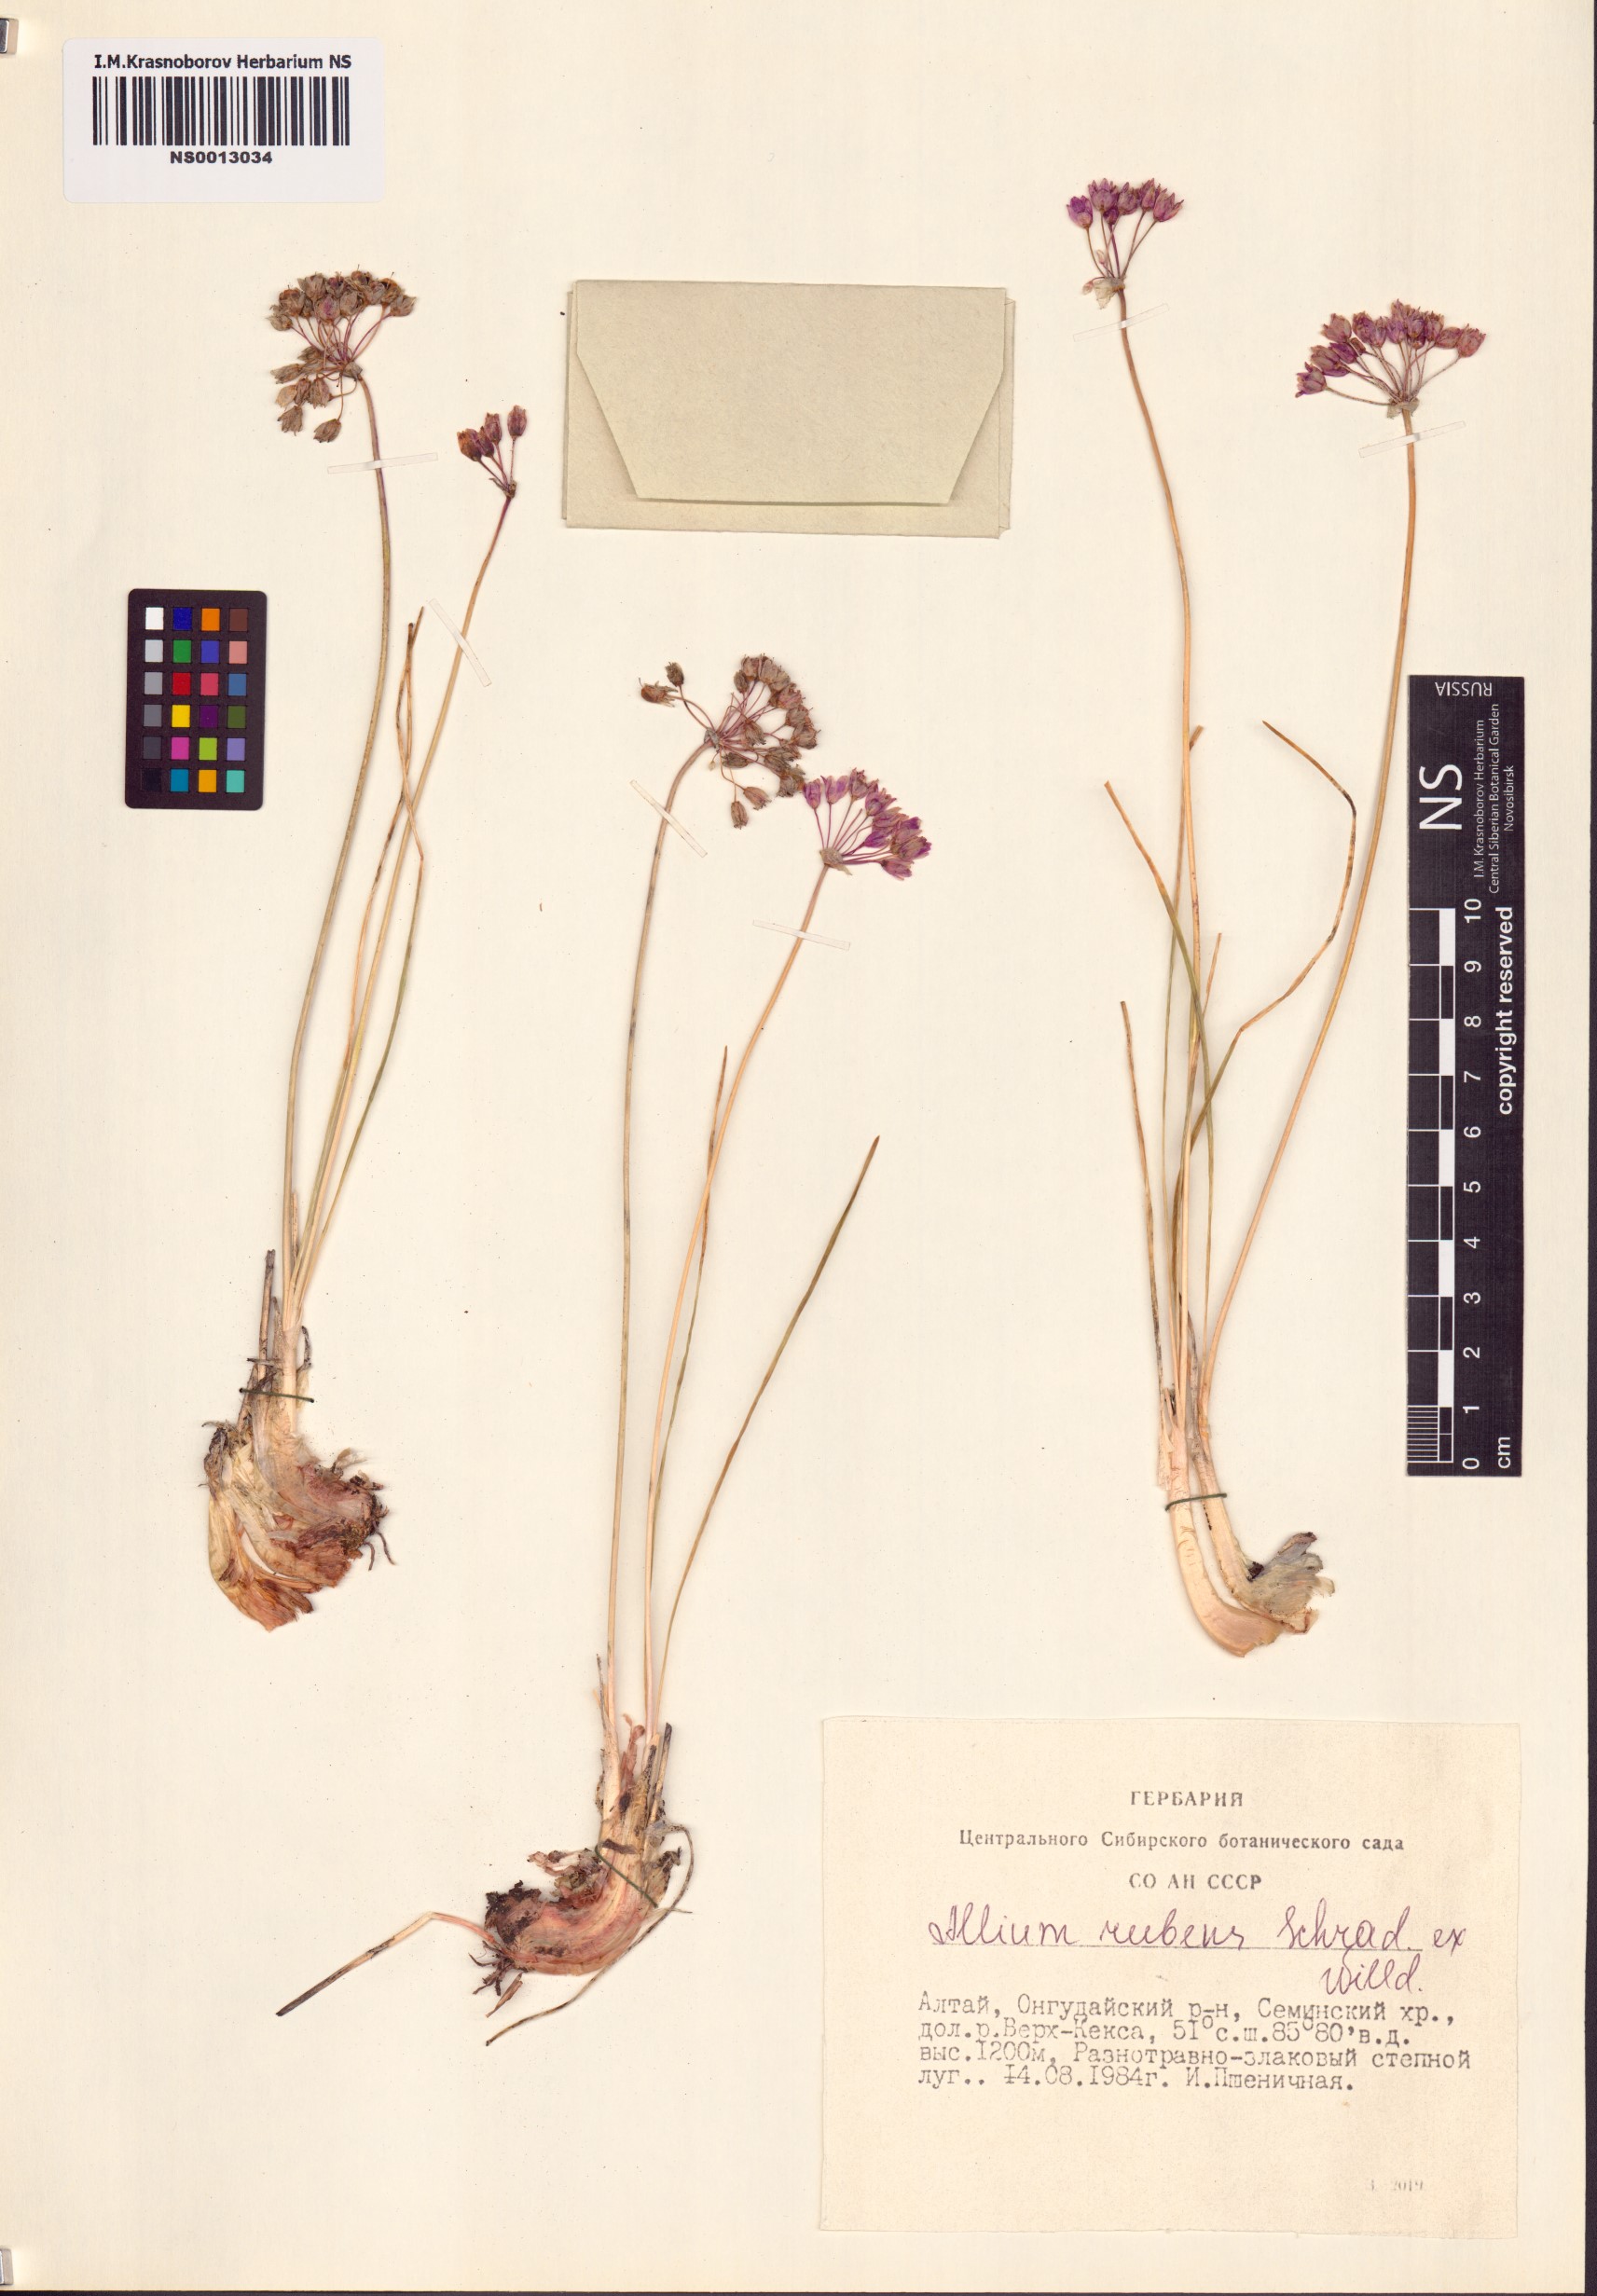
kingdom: Plantae
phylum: Tracheophyta
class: Liliopsida
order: Asparagales
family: Amaryllidaceae
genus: Allium
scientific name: Allium rubens
